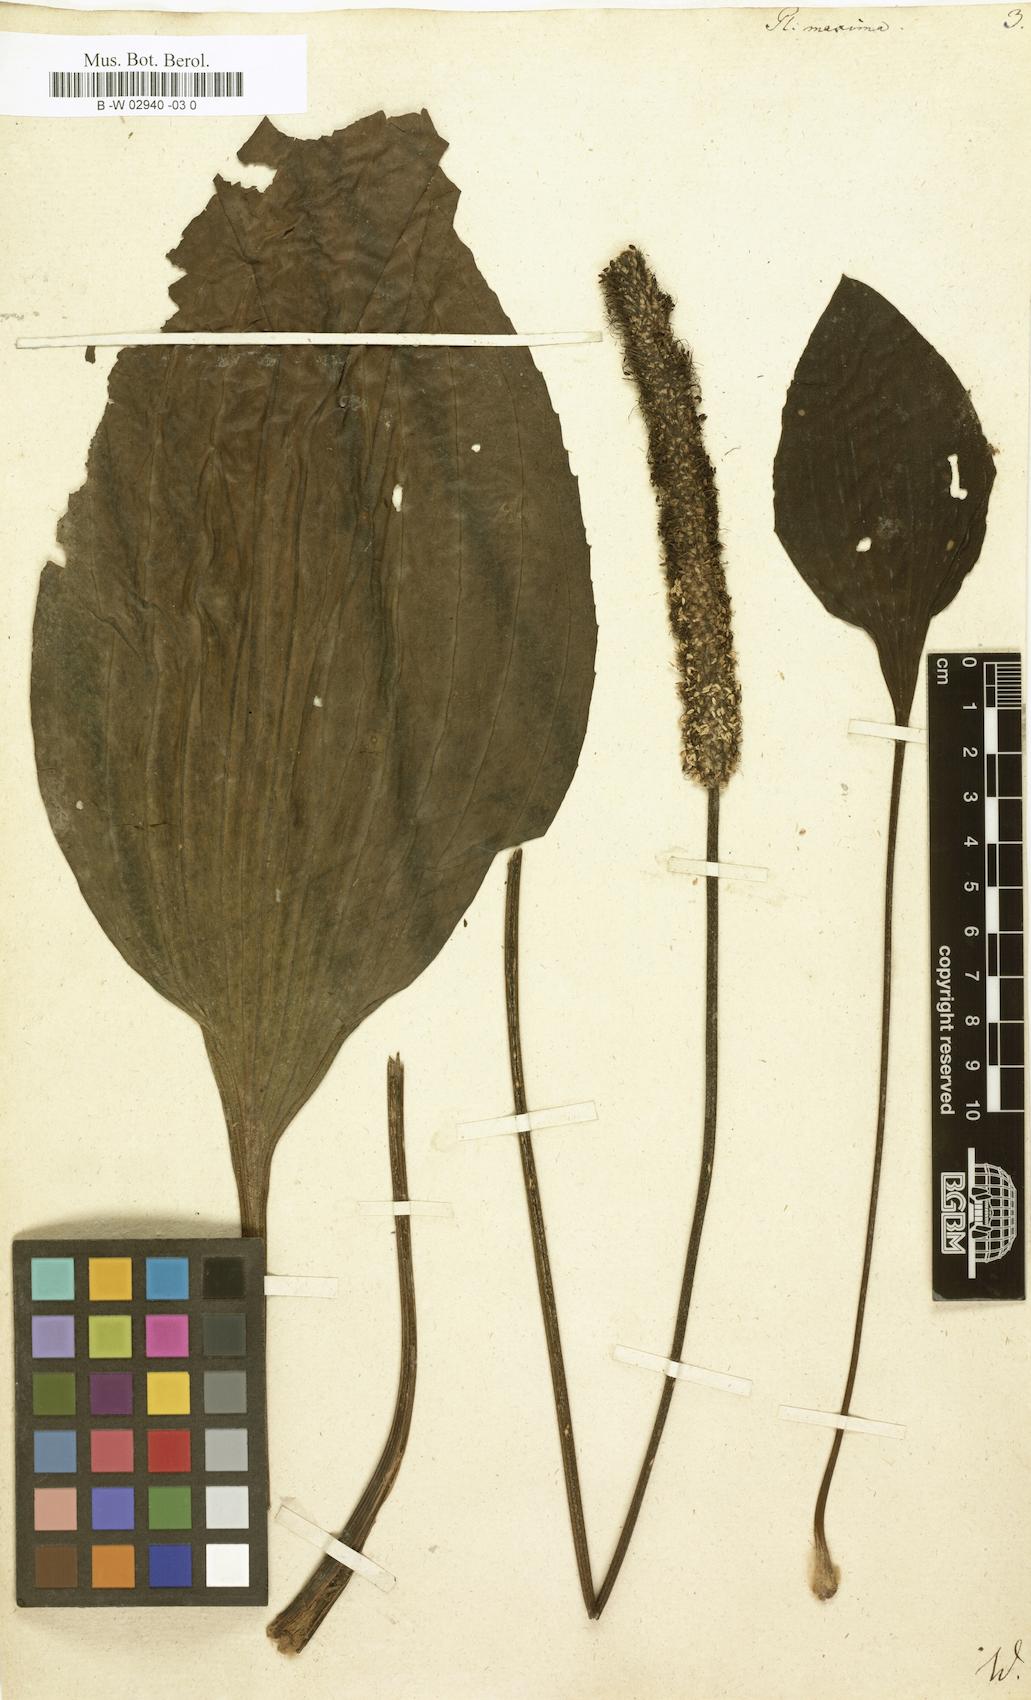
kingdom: Plantae
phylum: Tracheophyta
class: Magnoliopsida
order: Lamiales
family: Plantaginaceae
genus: Plantago
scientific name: Plantago maxima
